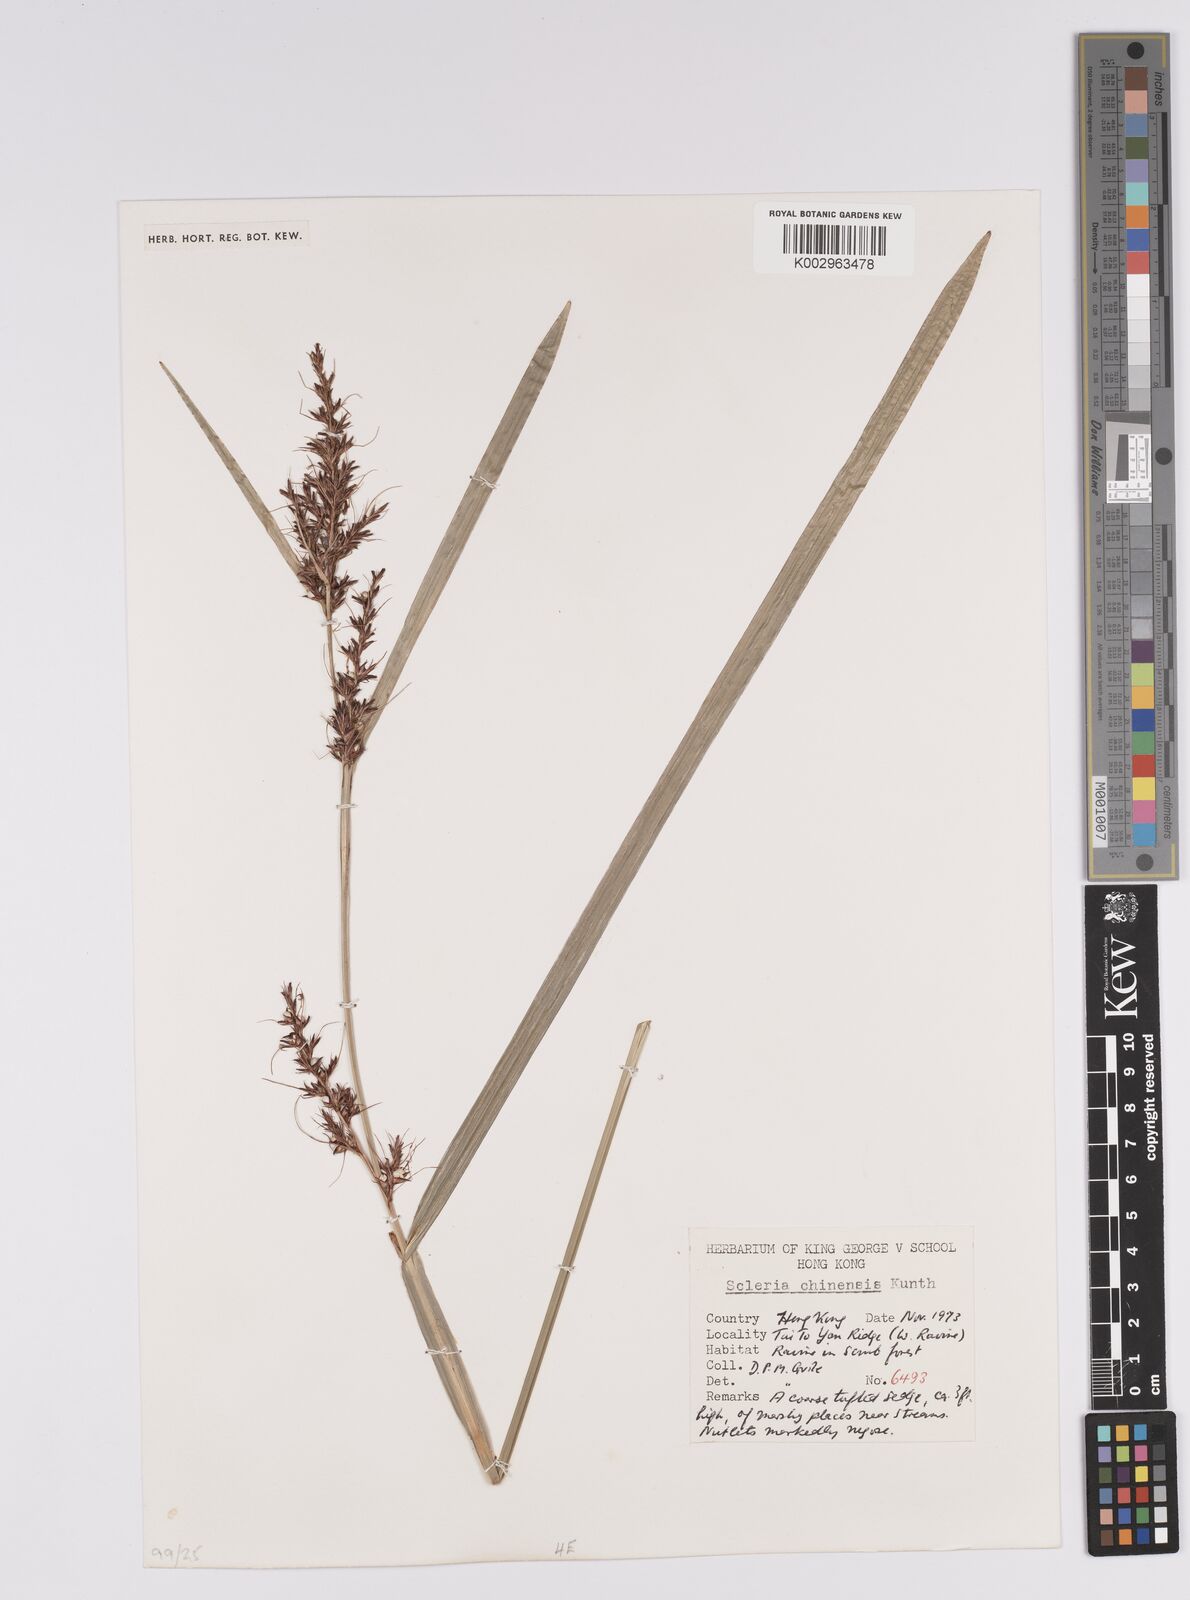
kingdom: Plantae
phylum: Tracheophyta
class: Liliopsida
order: Poales
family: Cyperaceae
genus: Scleria
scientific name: Scleria ciliaris
